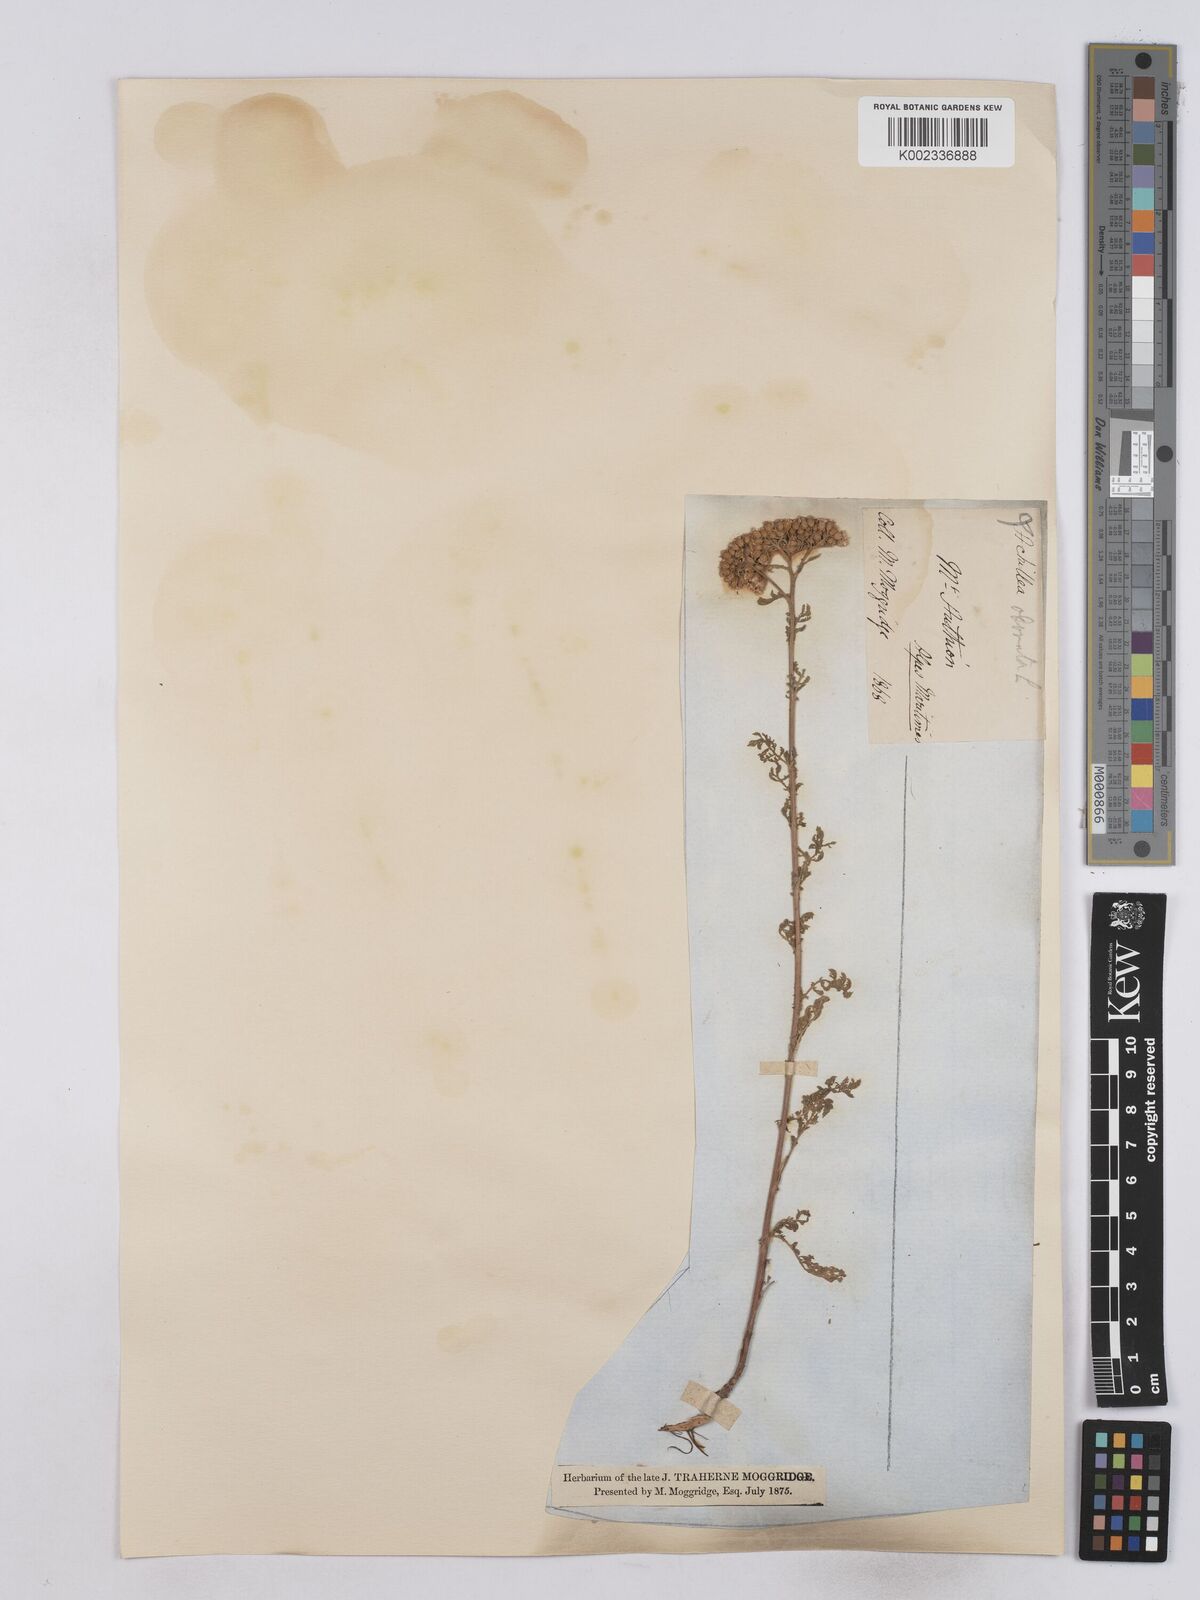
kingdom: Plantae
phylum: Tracheophyta
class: Magnoliopsida
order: Asterales
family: Asteraceae
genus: Achillea
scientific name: Achillea odorata
